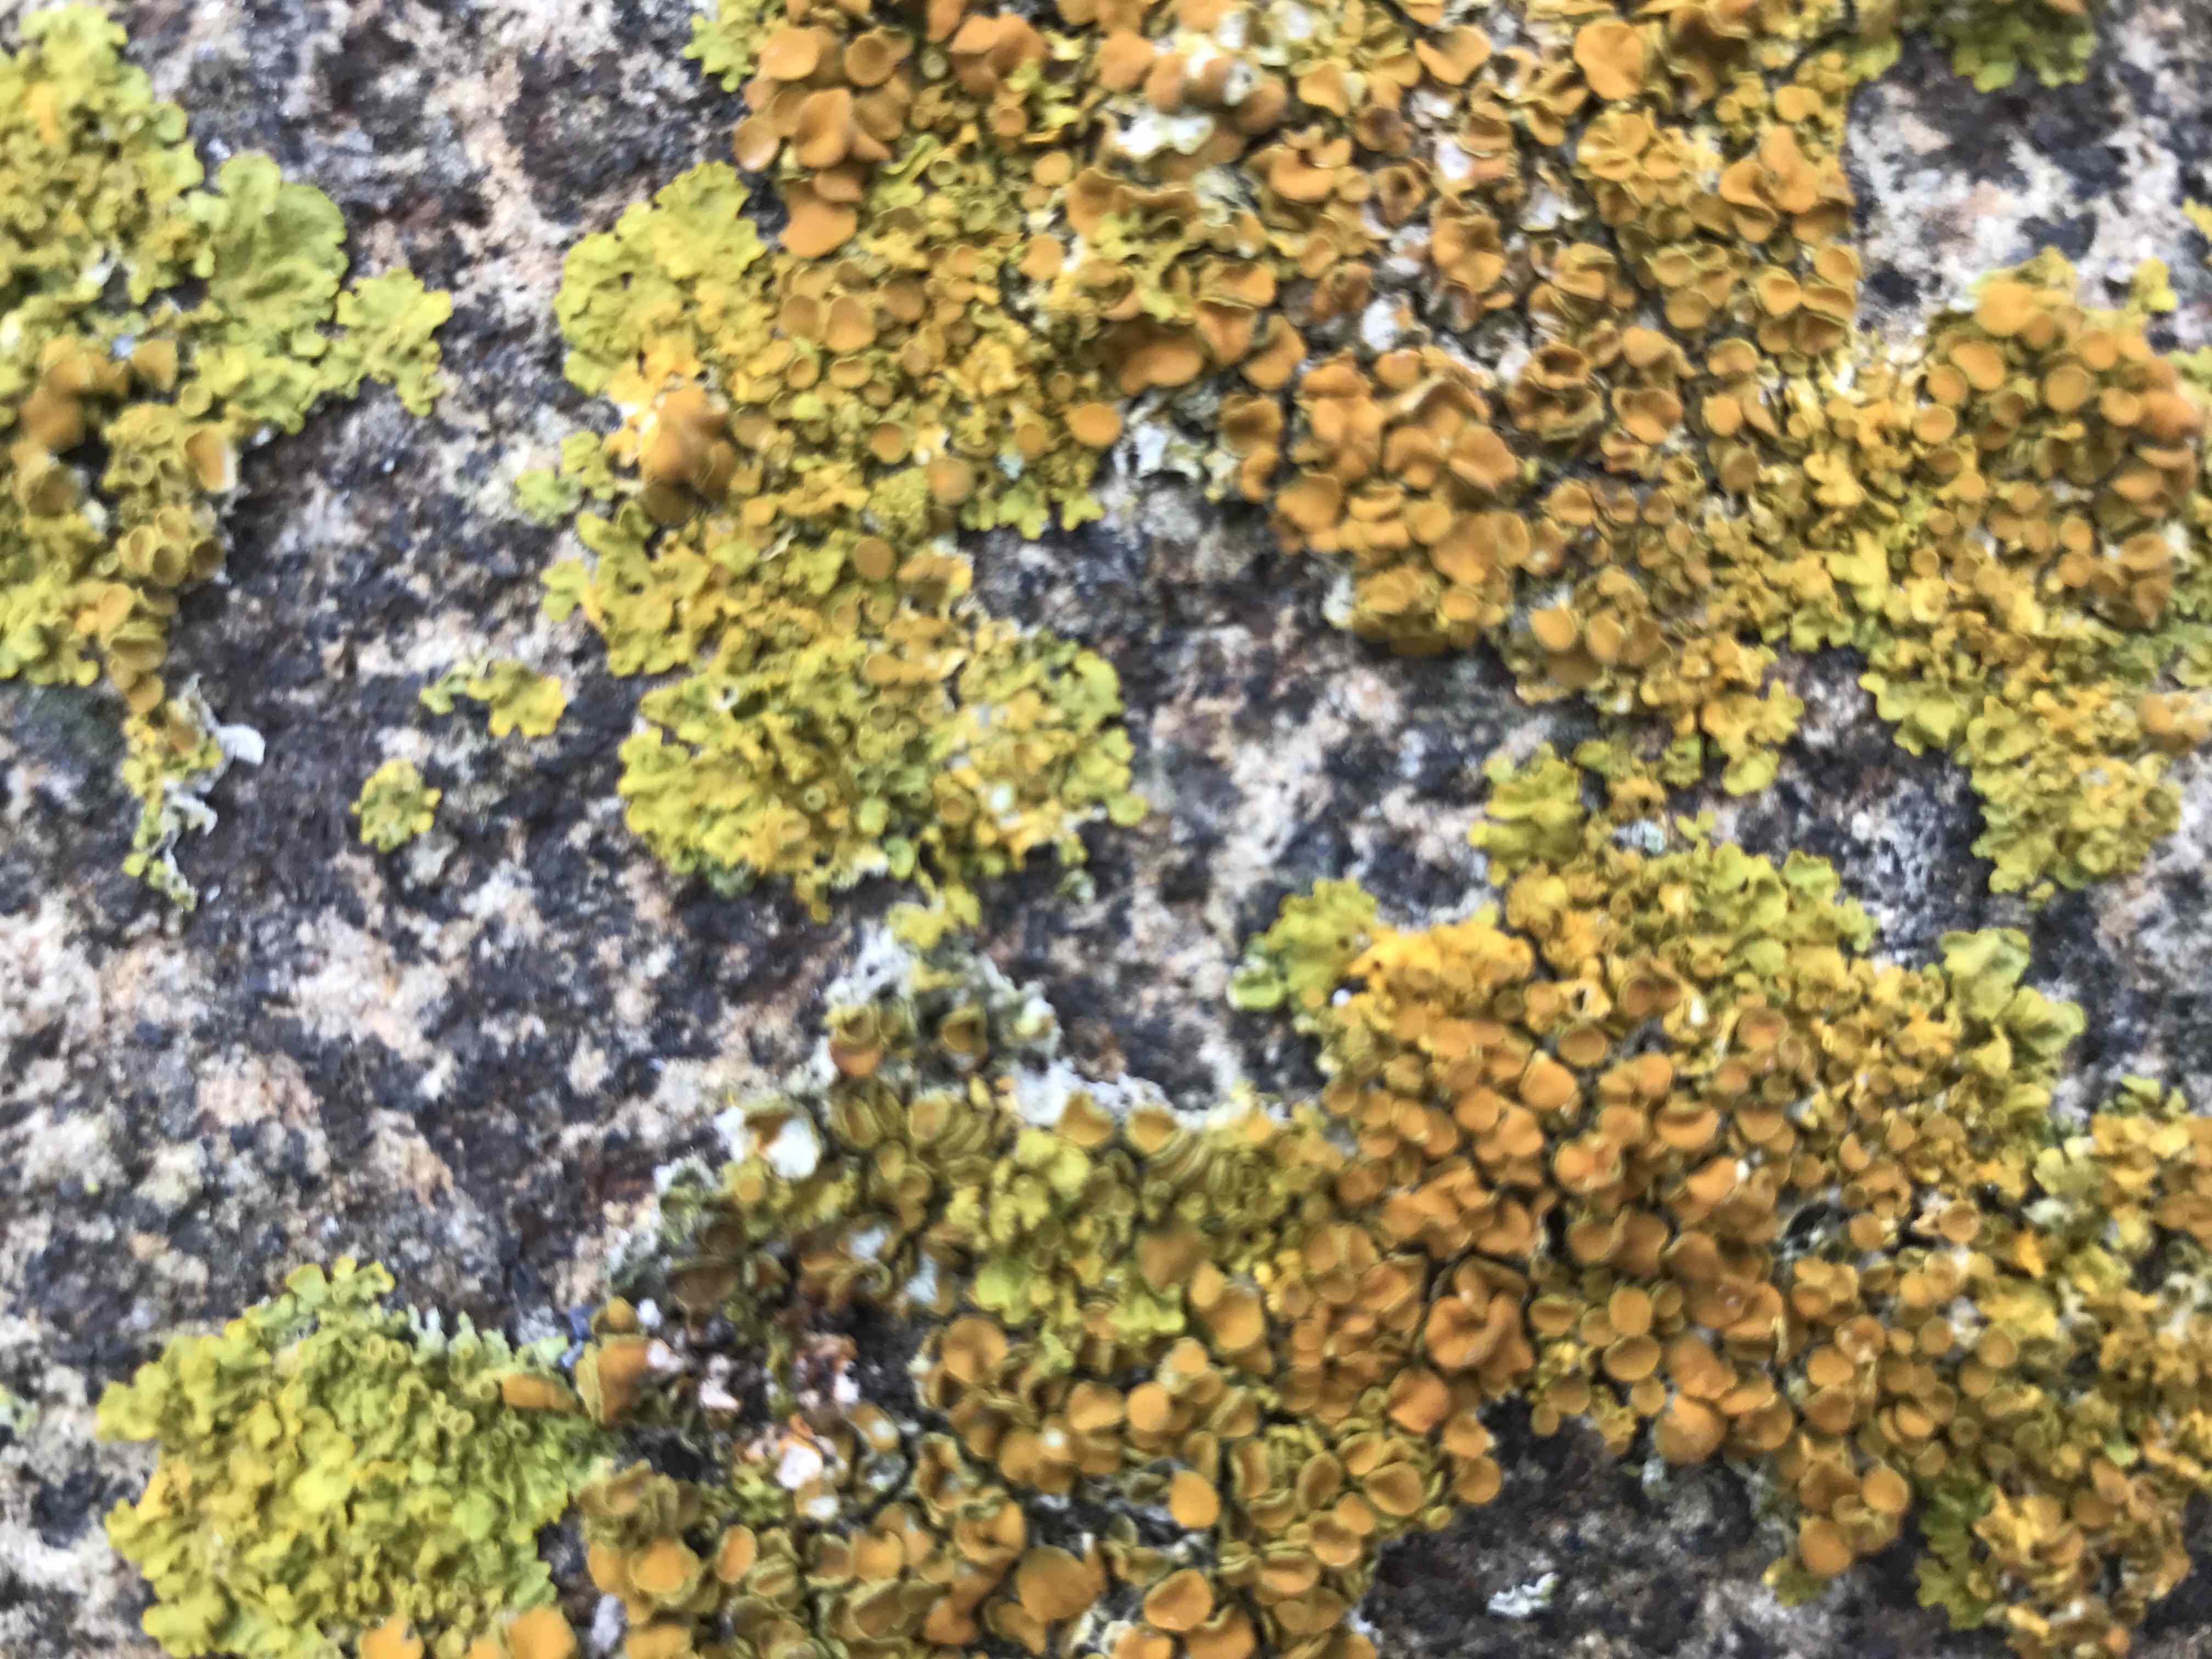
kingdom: Fungi
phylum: Ascomycota
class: Lecanoromycetes
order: Teloschistales
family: Teloschistaceae
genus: Xanthoria
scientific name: Xanthoria parietina
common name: almindelig væggelav
